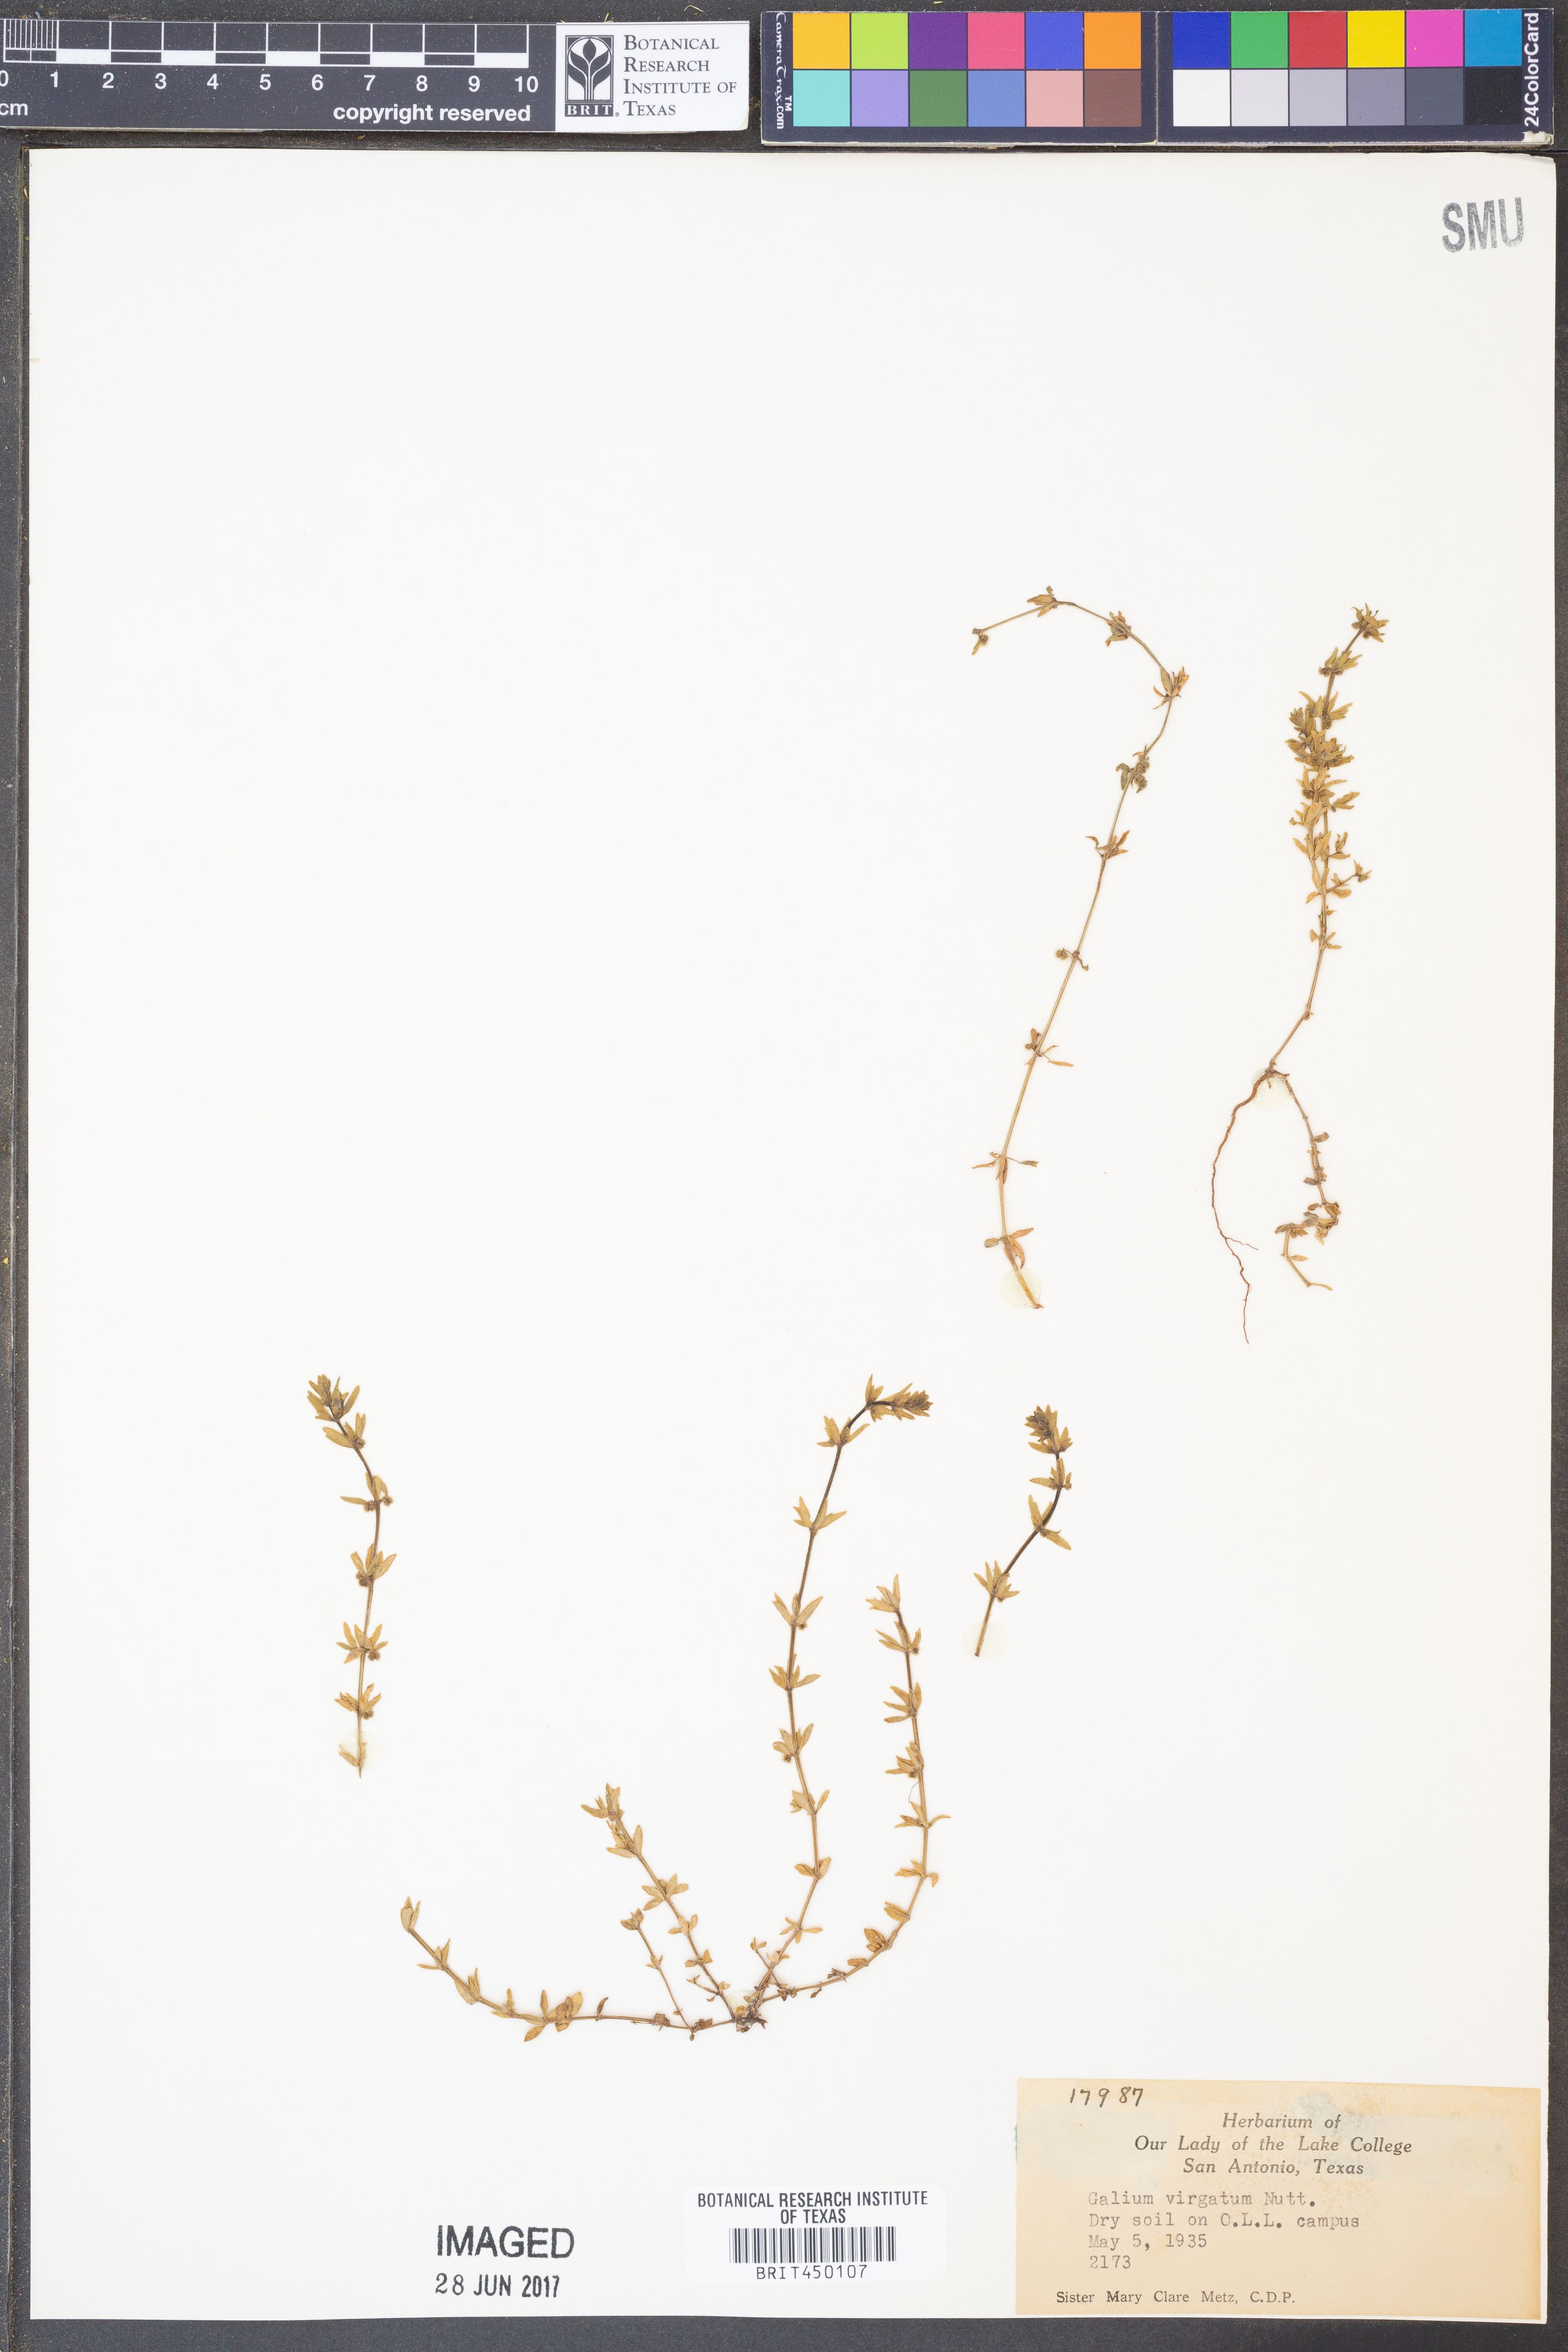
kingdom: Plantae
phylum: Tracheophyta
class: Magnoliopsida
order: Gentianales
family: Rubiaceae
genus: Galium
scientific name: Galium virgatum
